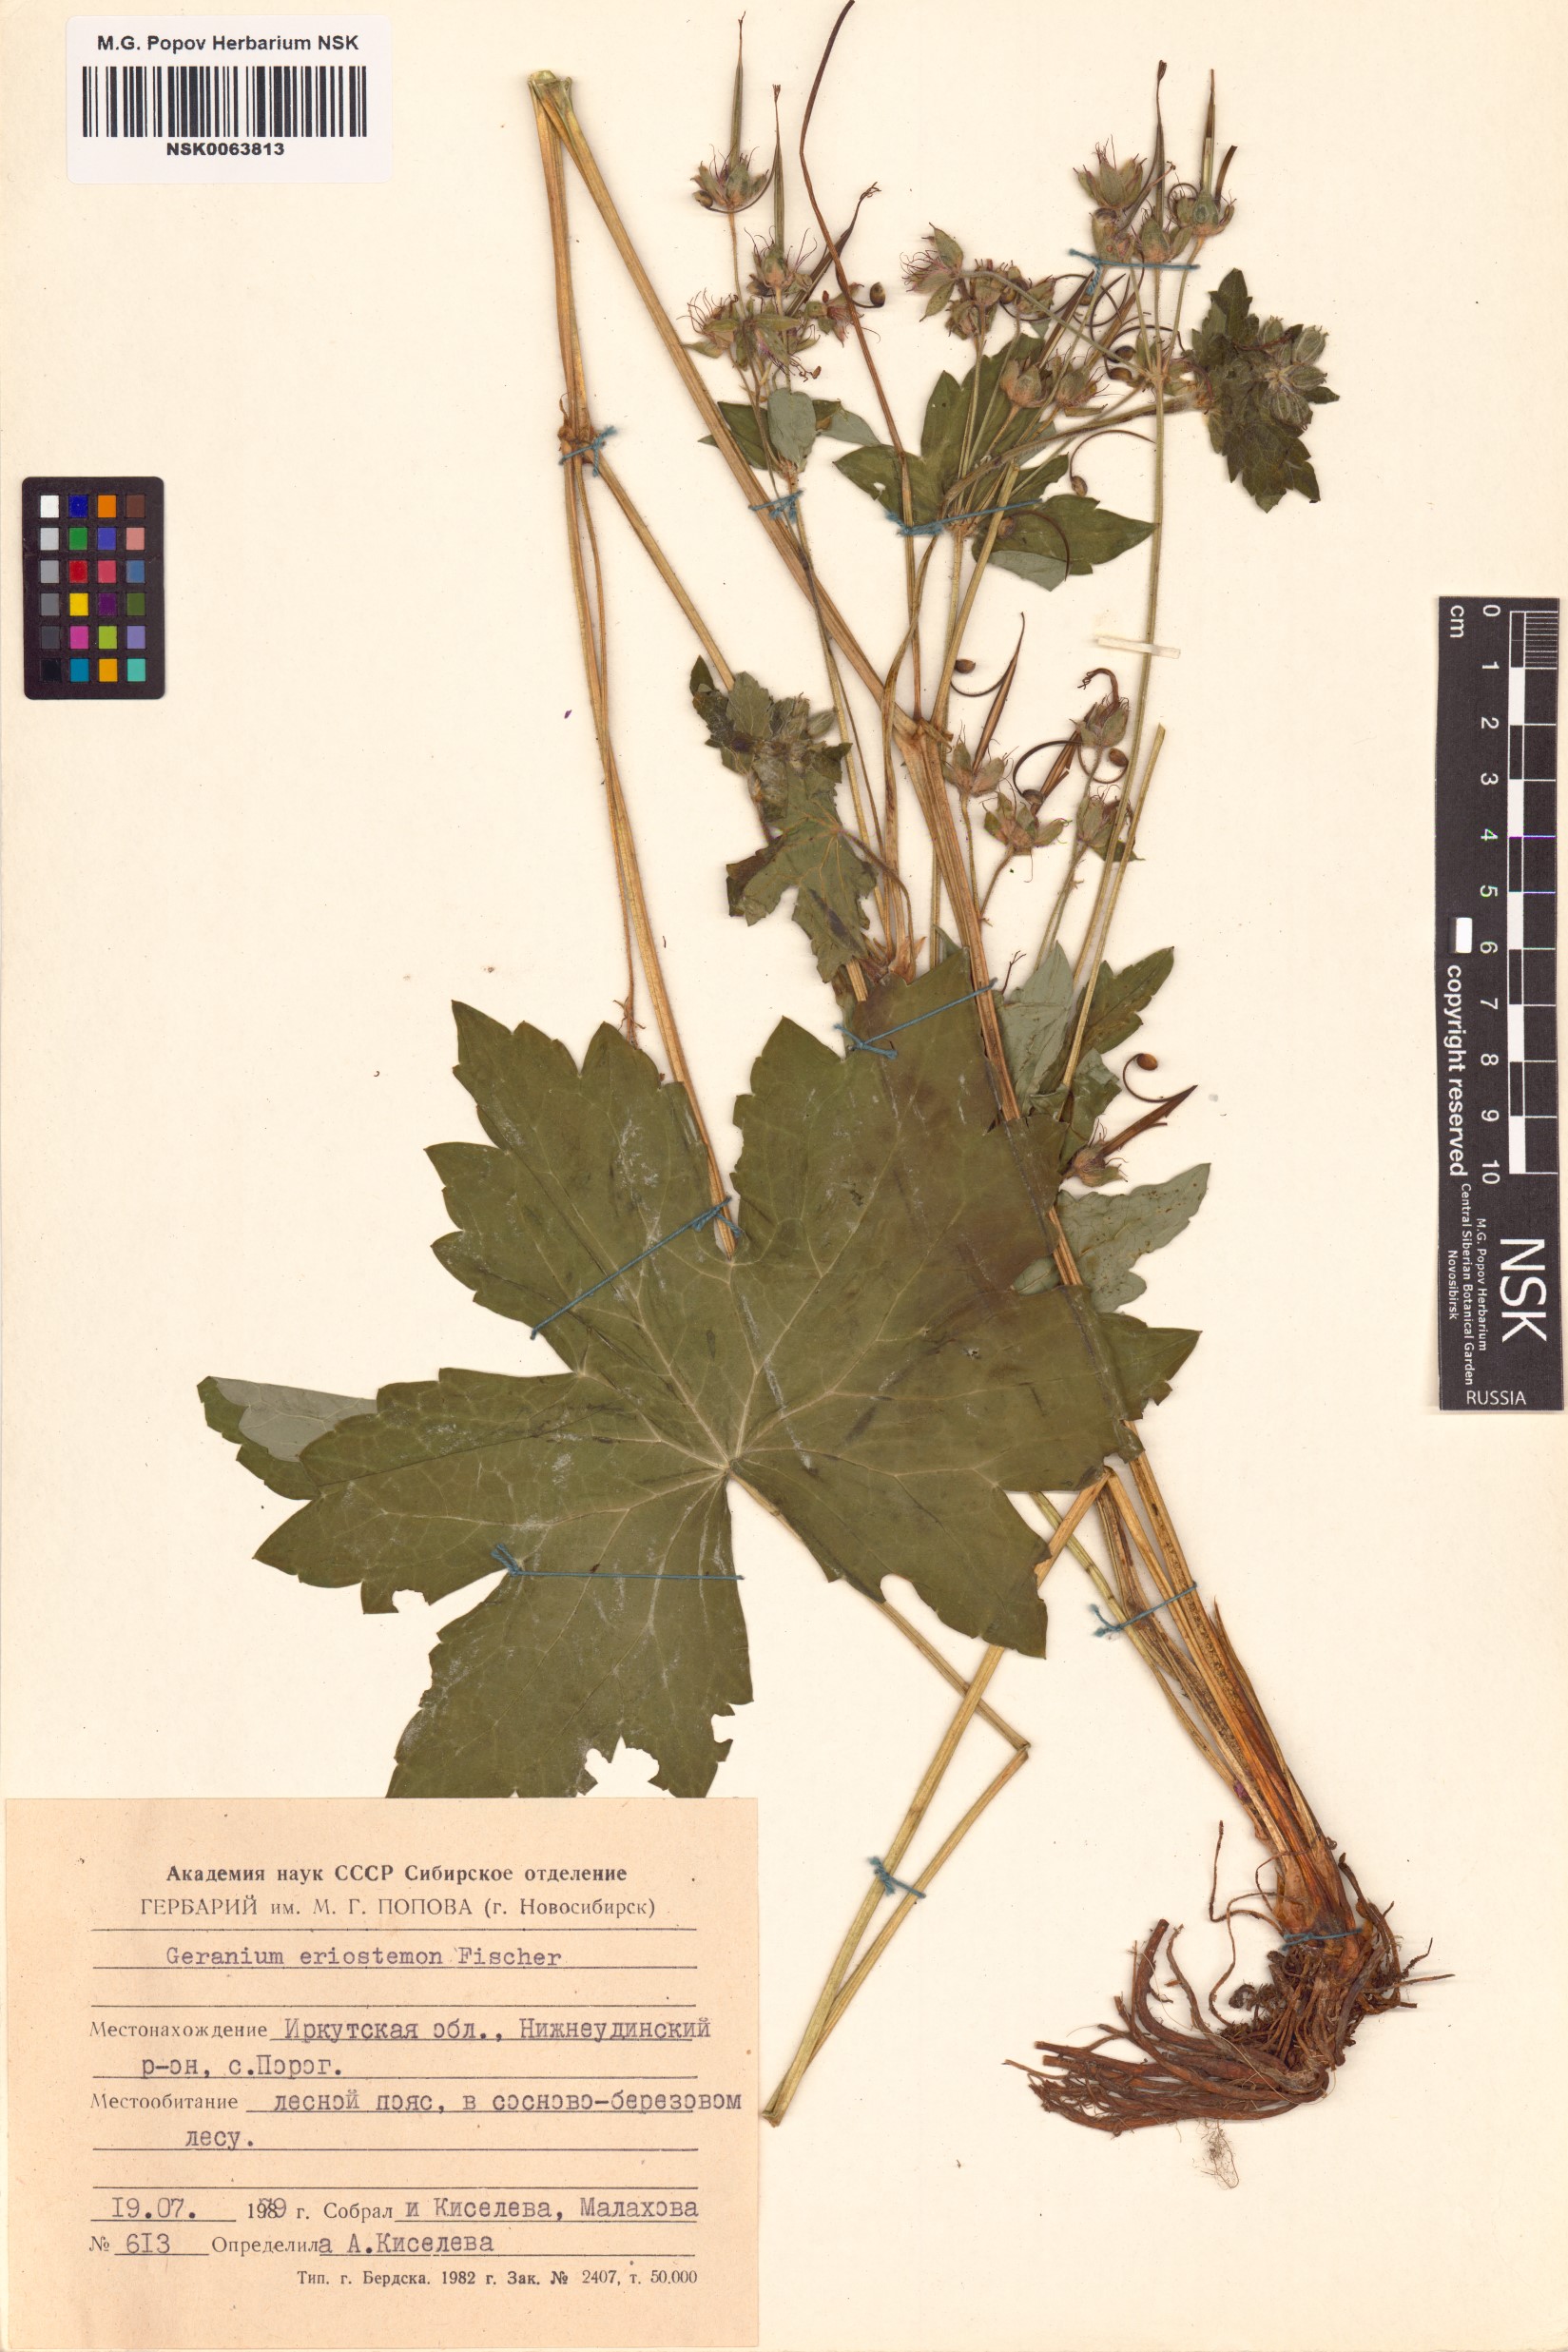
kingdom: Plantae
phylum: Tracheophyta
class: Magnoliopsida
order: Geraniales
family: Geraniaceae
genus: Geranium
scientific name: Geranium platyanthum
